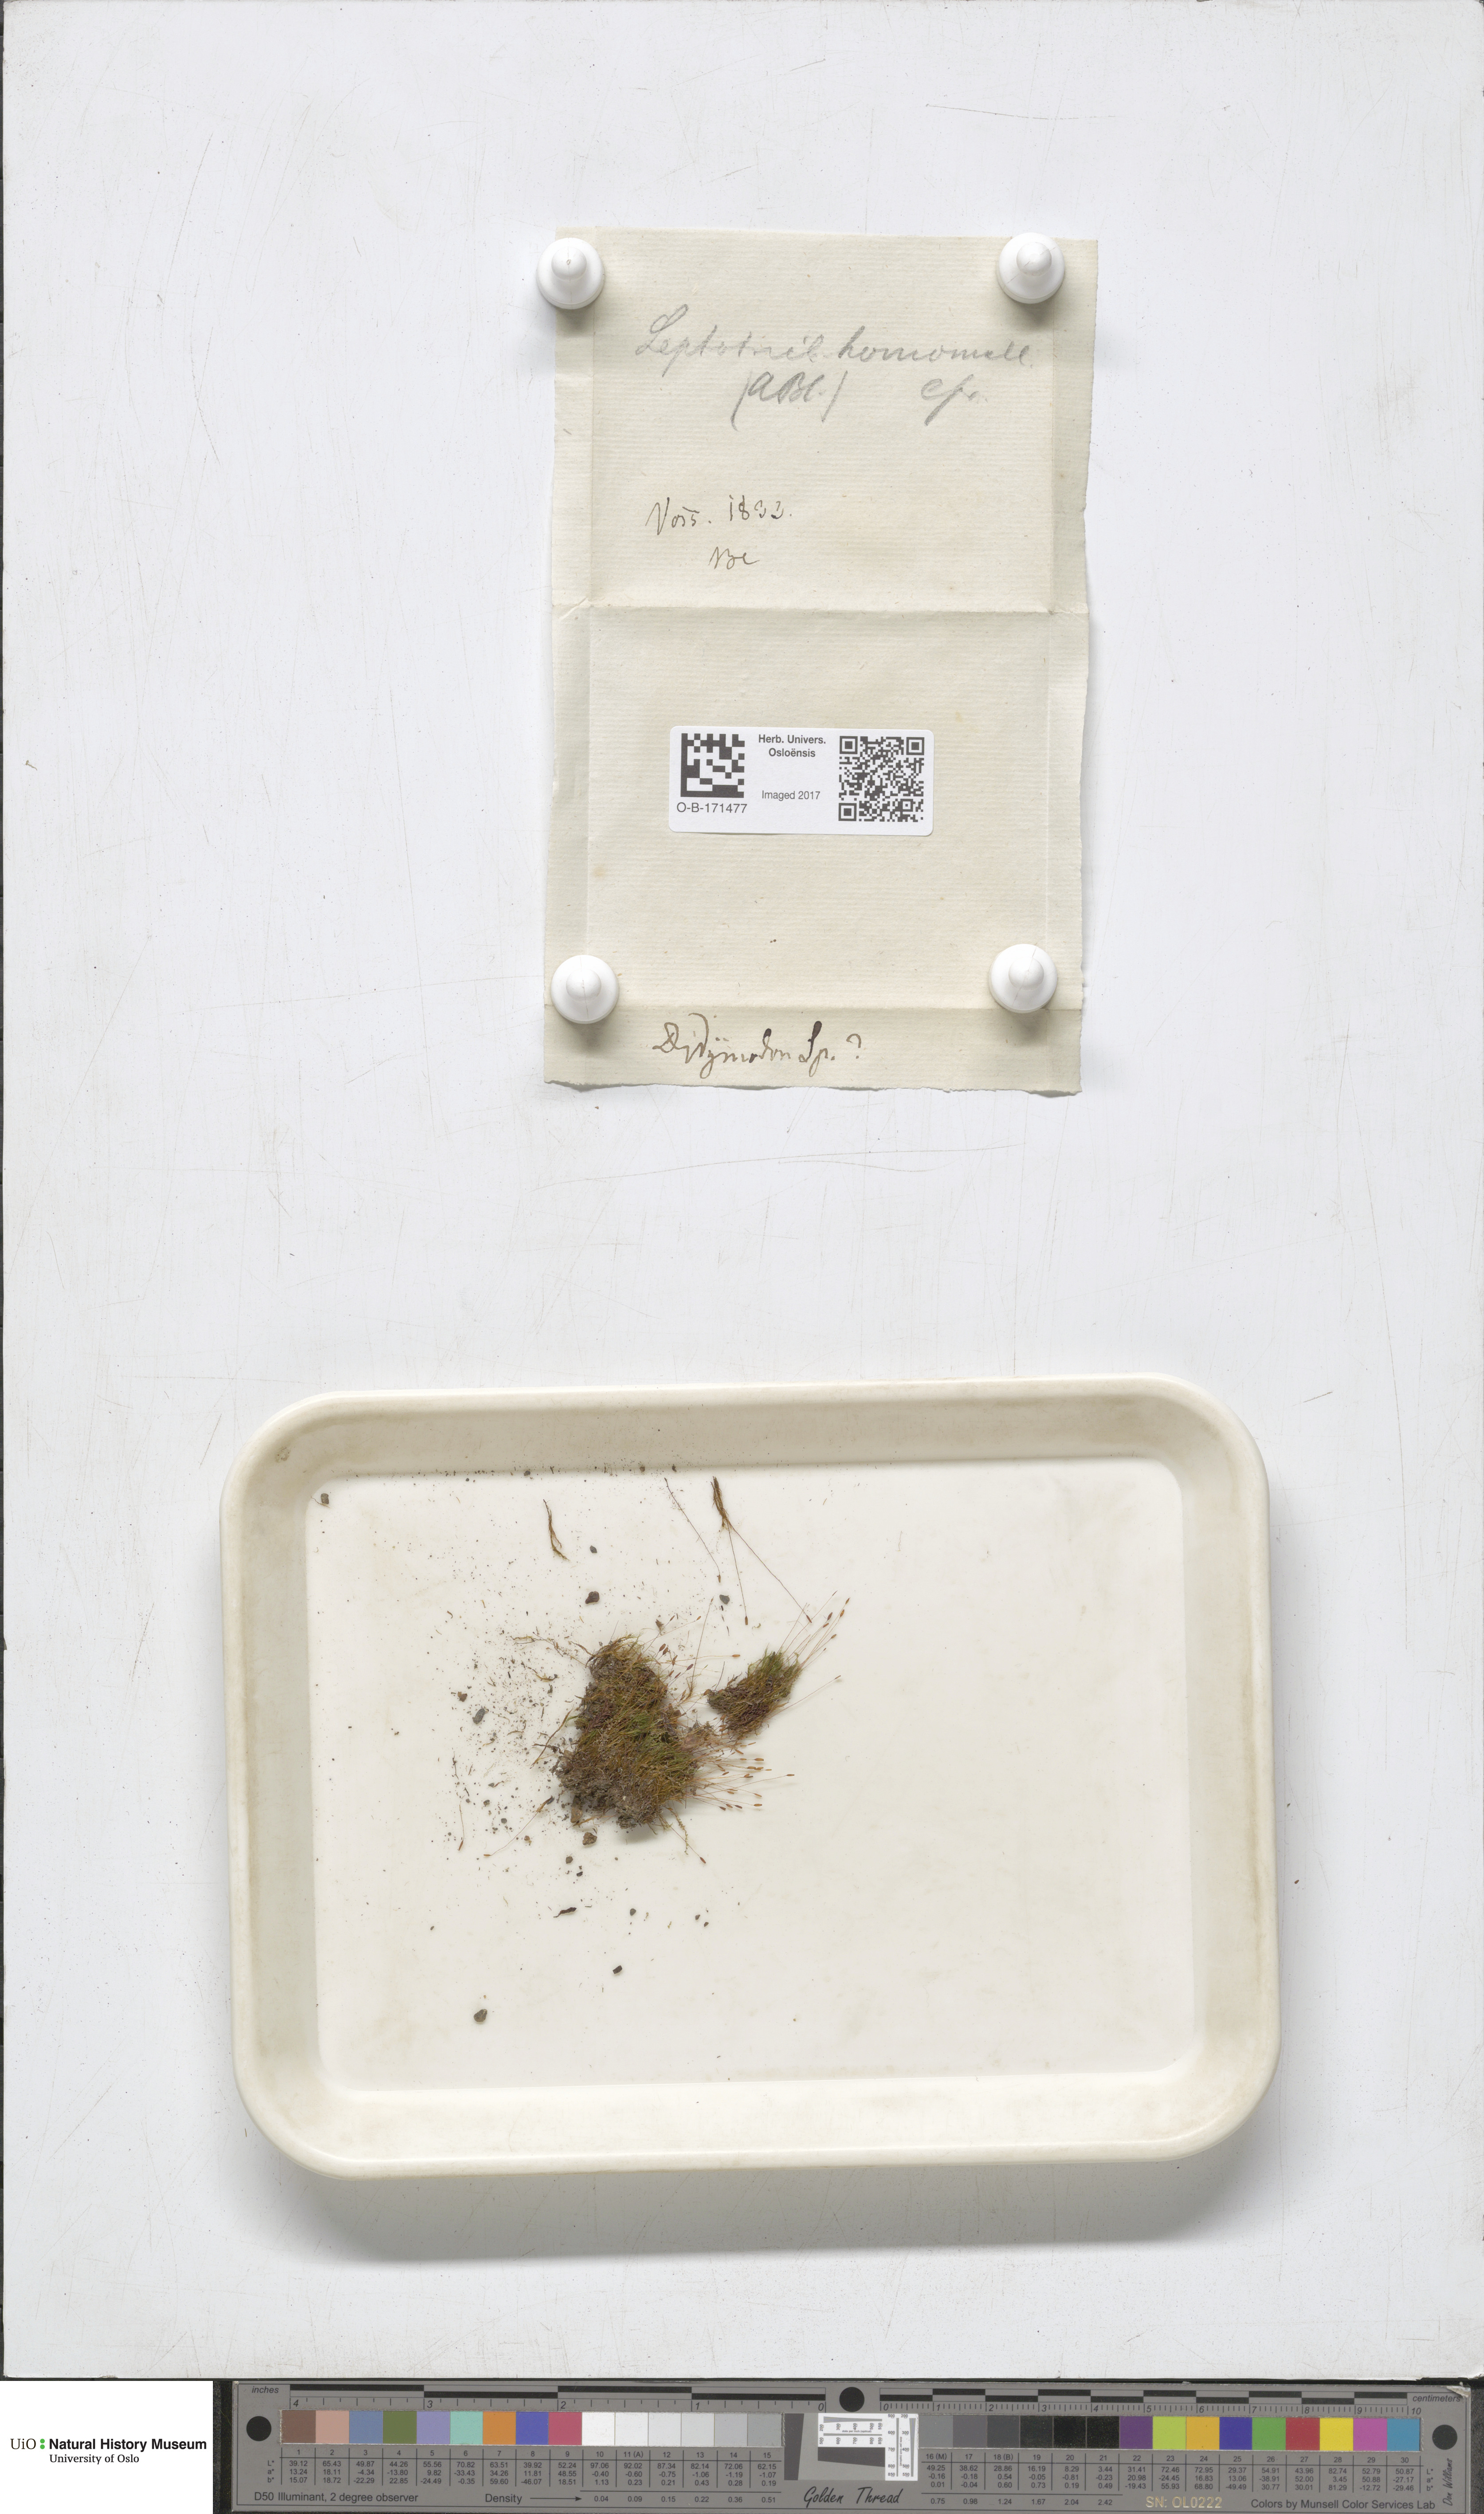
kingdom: Plantae
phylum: Bryophyta
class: Bryopsida
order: Dicranales
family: Ditrichaceae
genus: Ditrichum
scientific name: Ditrichum heteromallum
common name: Curve-leaved ditrichum
